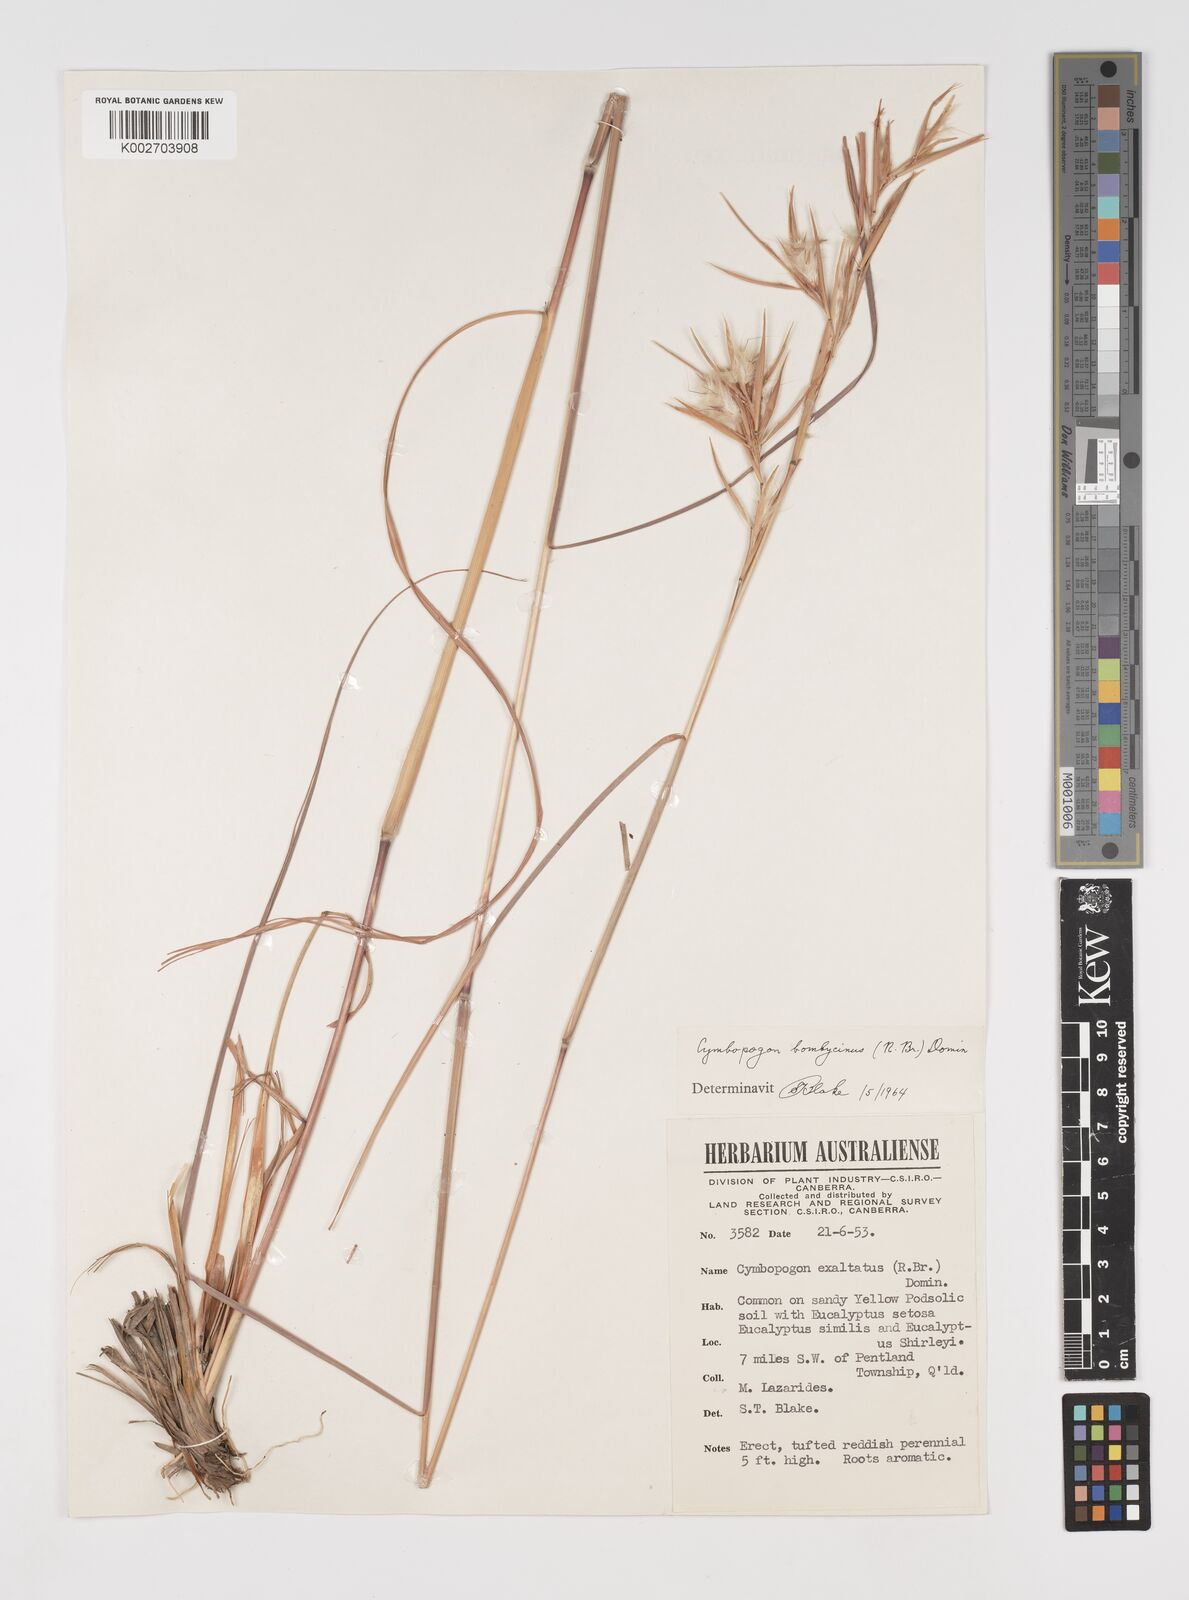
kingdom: Plantae
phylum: Tracheophyta
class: Liliopsida
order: Poales
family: Poaceae
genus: Cymbopogon
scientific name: Cymbopogon bombycinus
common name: Citronella grass
